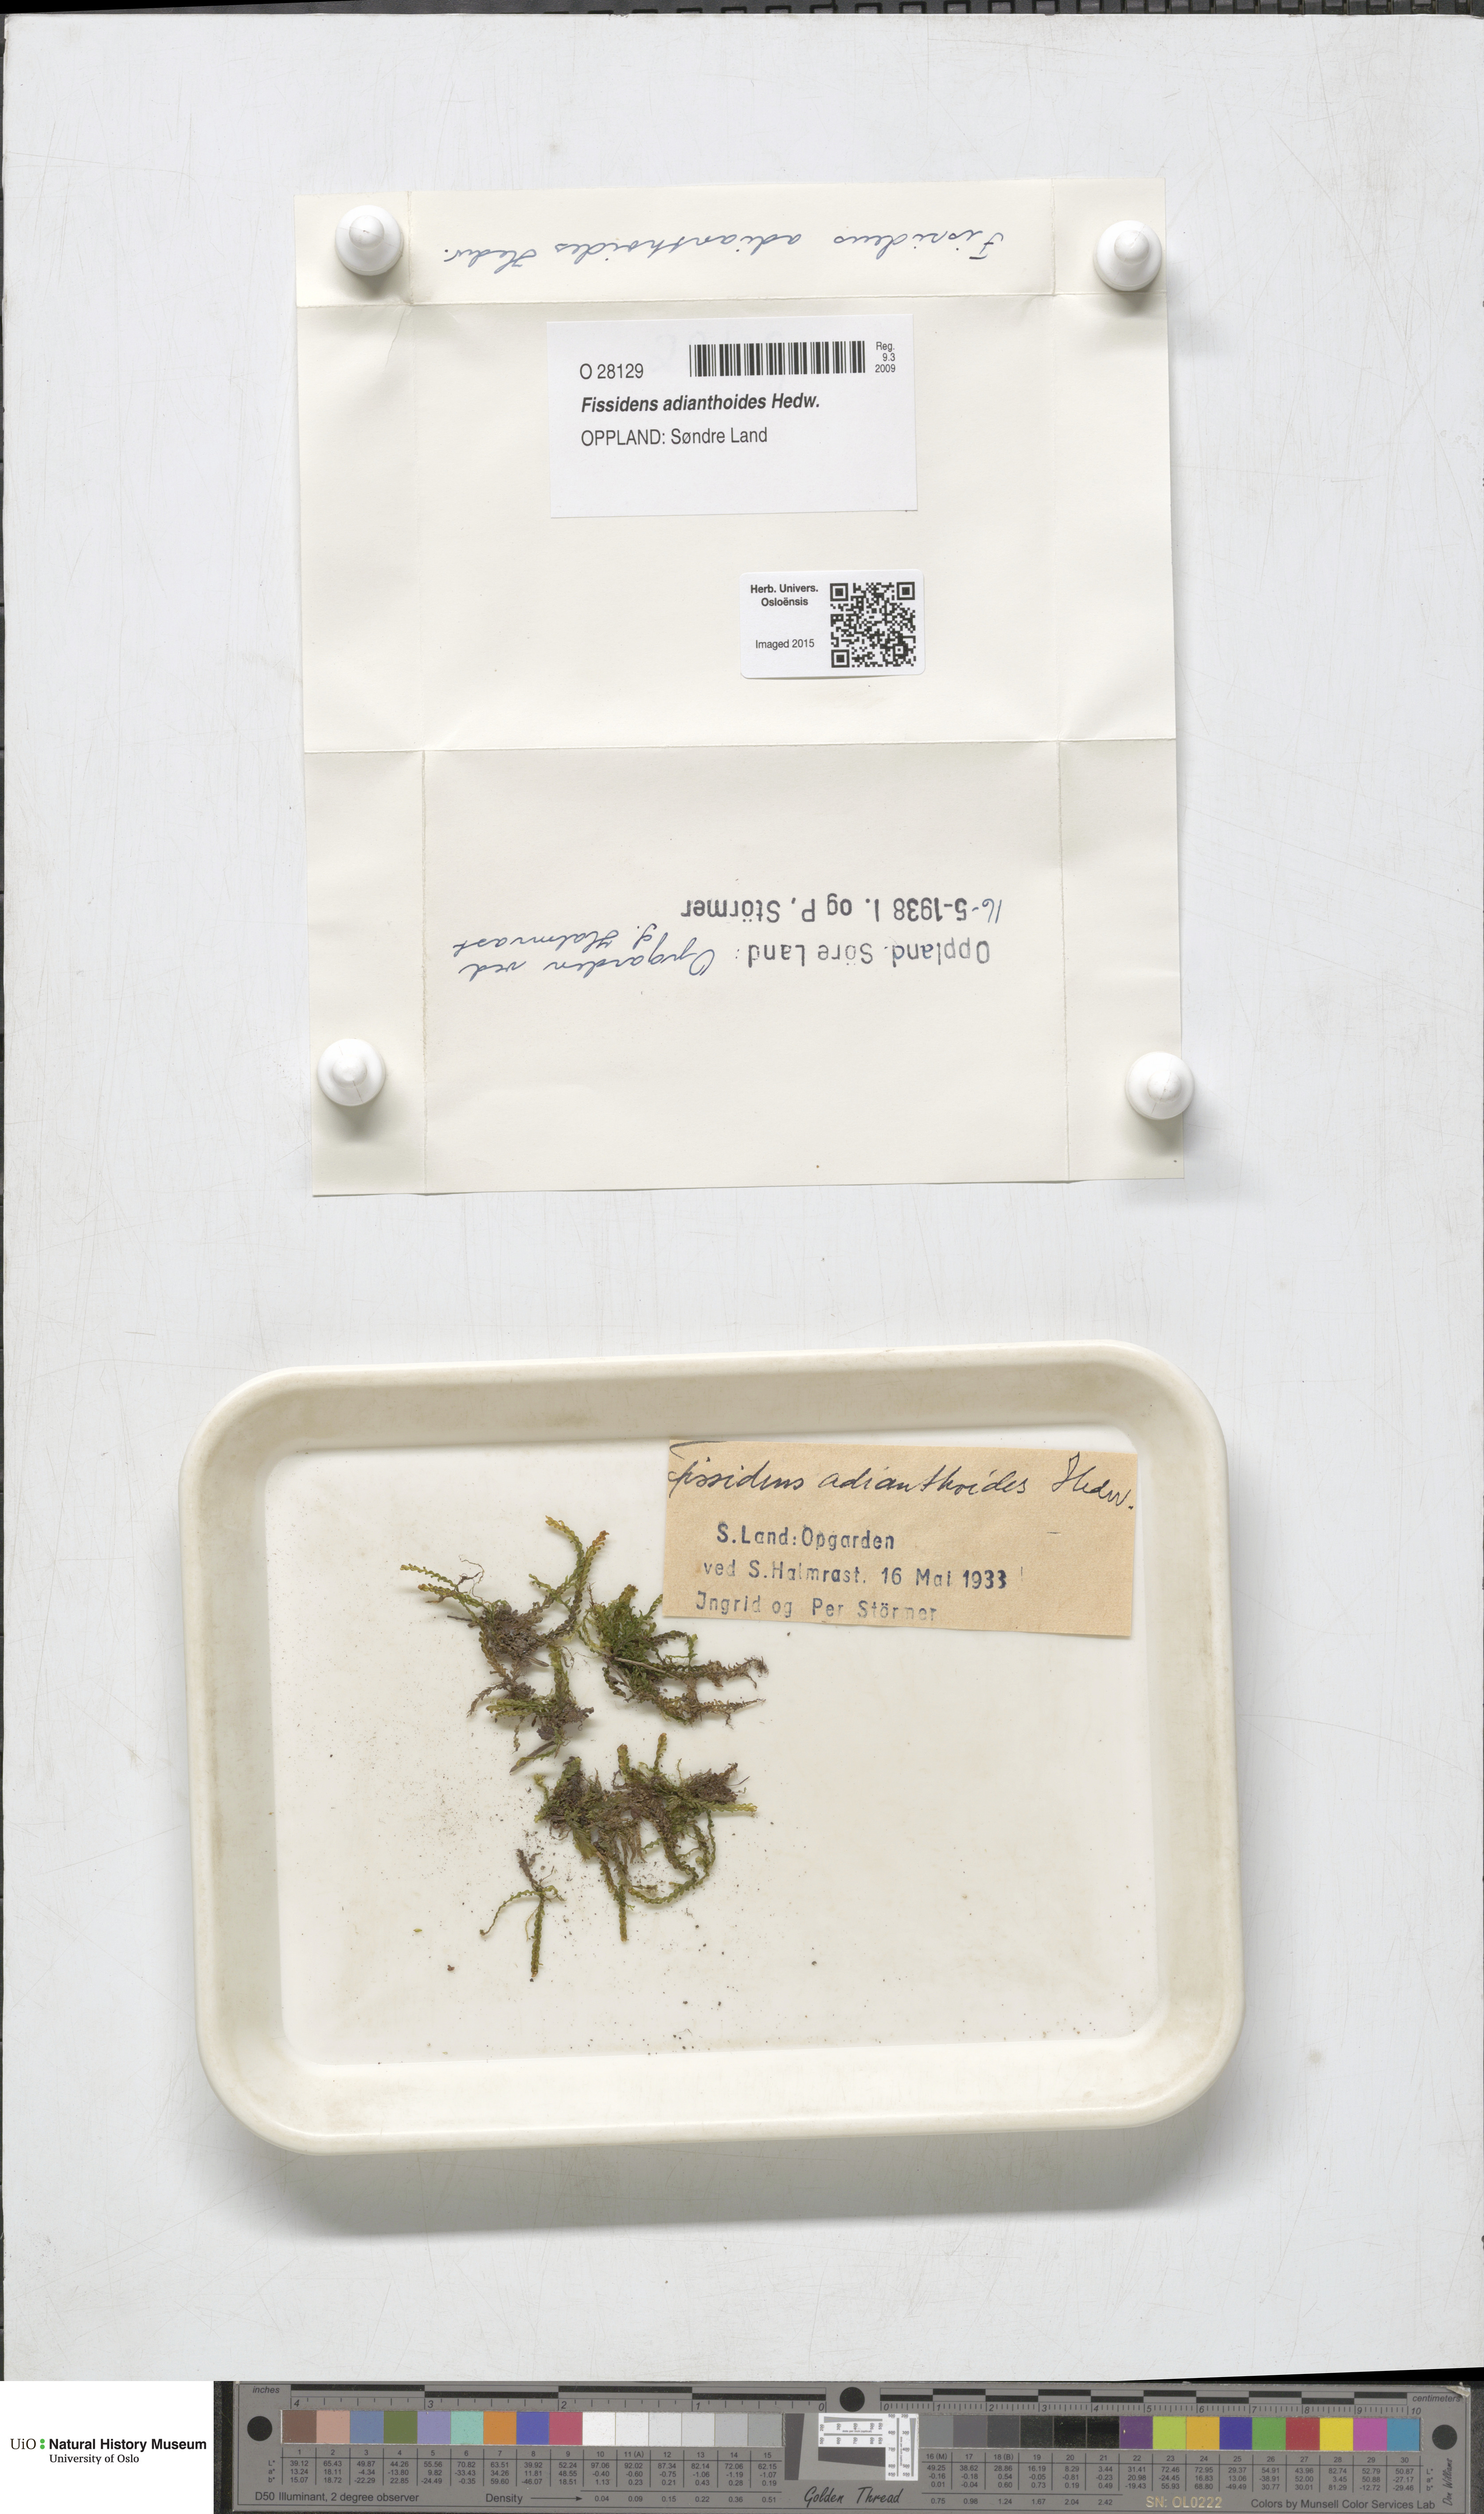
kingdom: Plantae
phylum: Bryophyta
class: Bryopsida
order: Dicranales
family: Fissidentaceae
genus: Fissidens
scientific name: Fissidens adianthoides
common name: Maidenhair pocket moss
